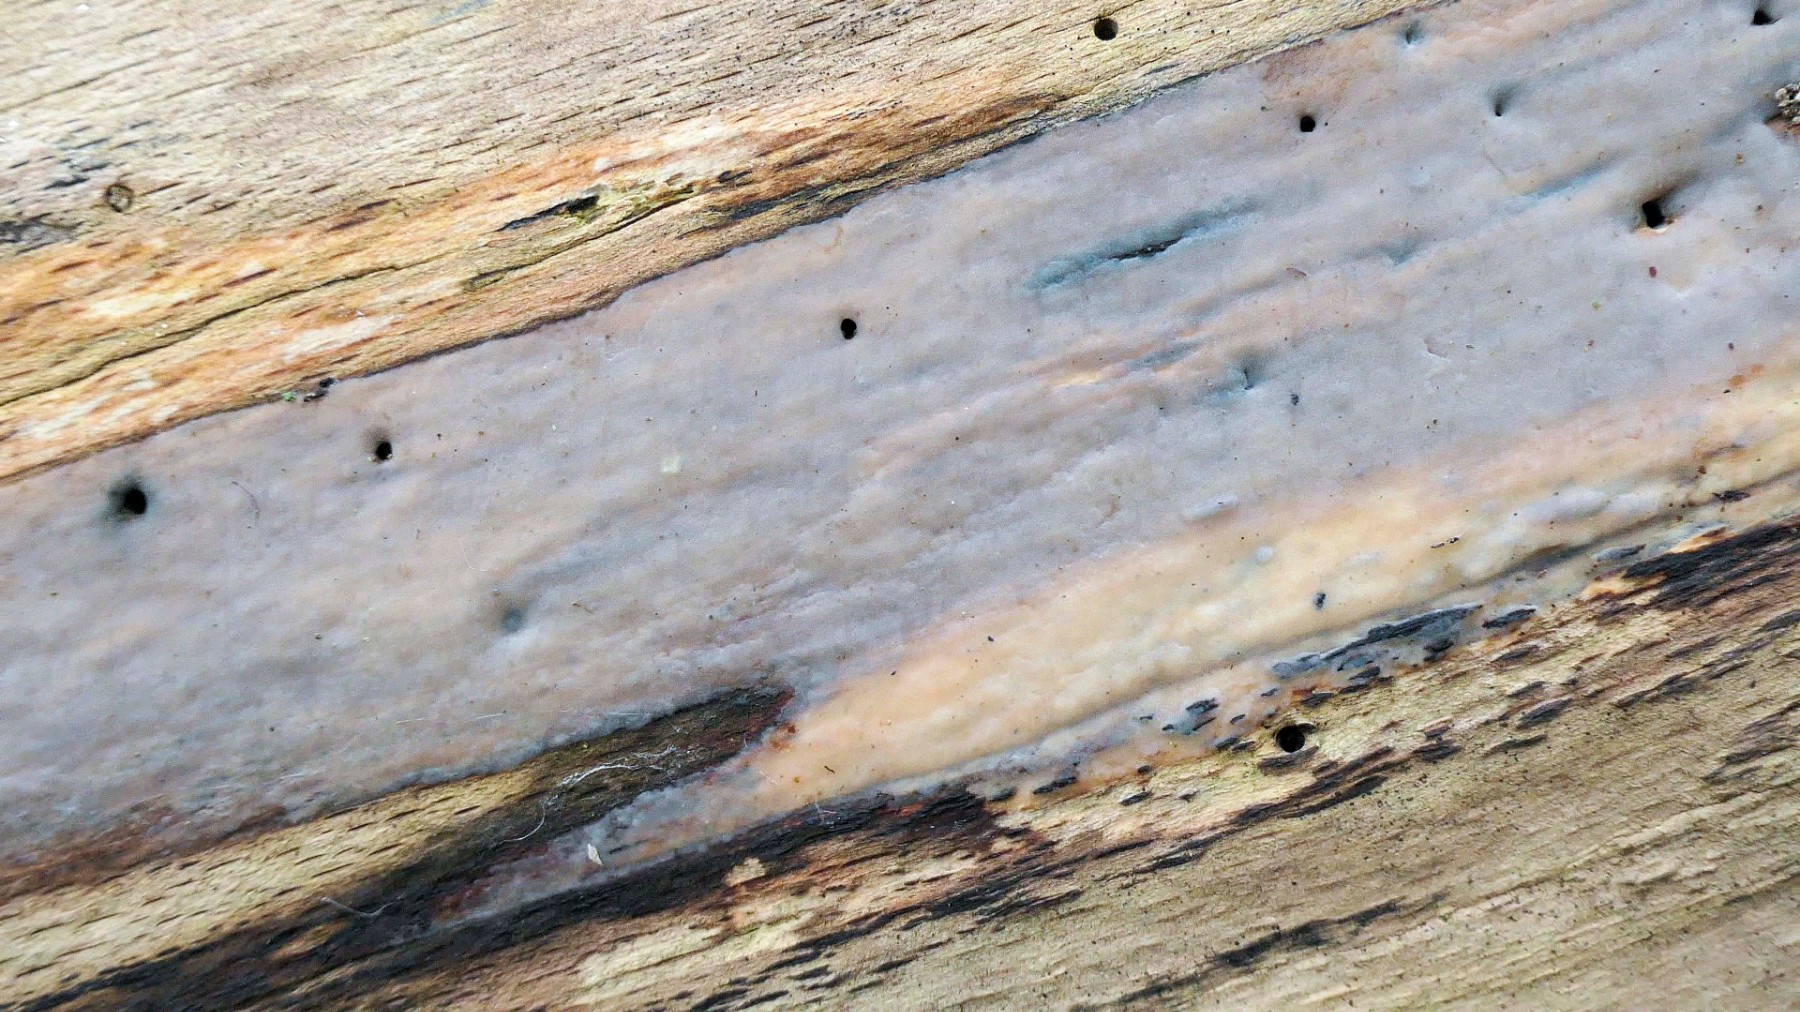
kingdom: Fungi
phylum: Basidiomycota
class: Tremellomycetes
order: Tremellales
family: Exidiaceae
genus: Exidiopsis
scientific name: Exidiopsis effusa
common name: smuk bævrehinde
